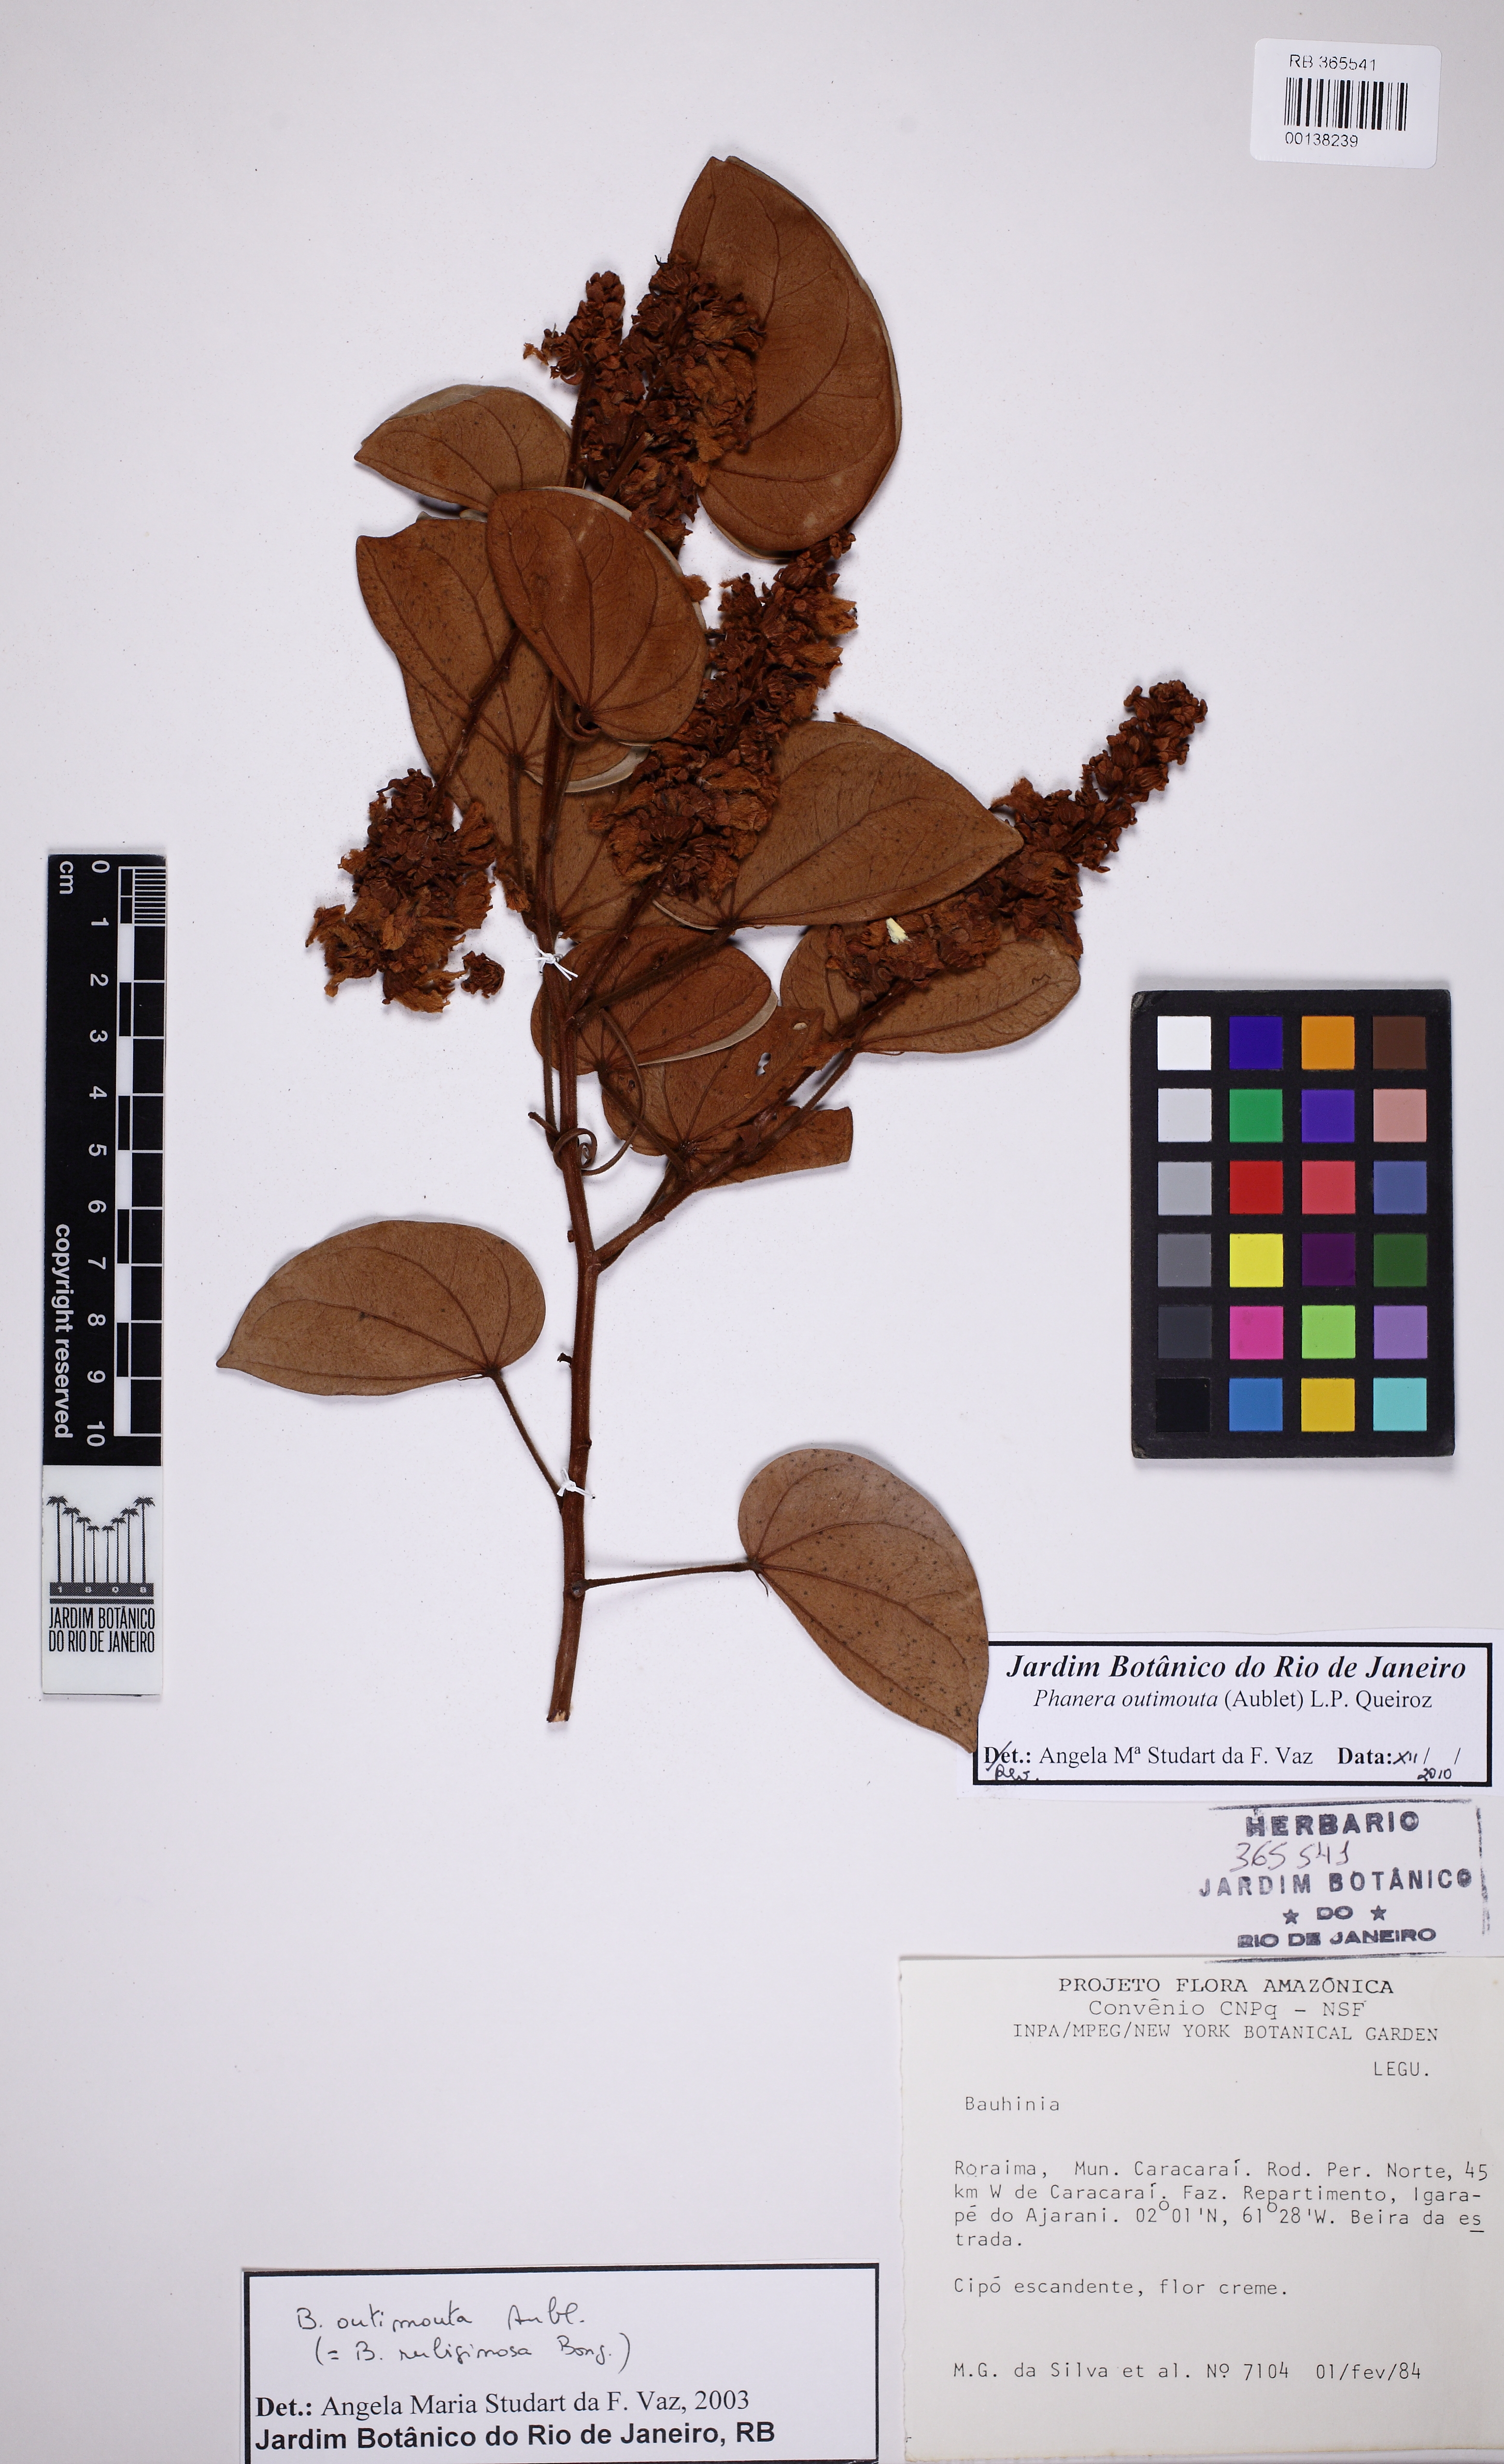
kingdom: Plantae
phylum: Tracheophyta
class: Magnoliopsida
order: Fabales
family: Fabaceae
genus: Schnella
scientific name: Schnella outimouta
